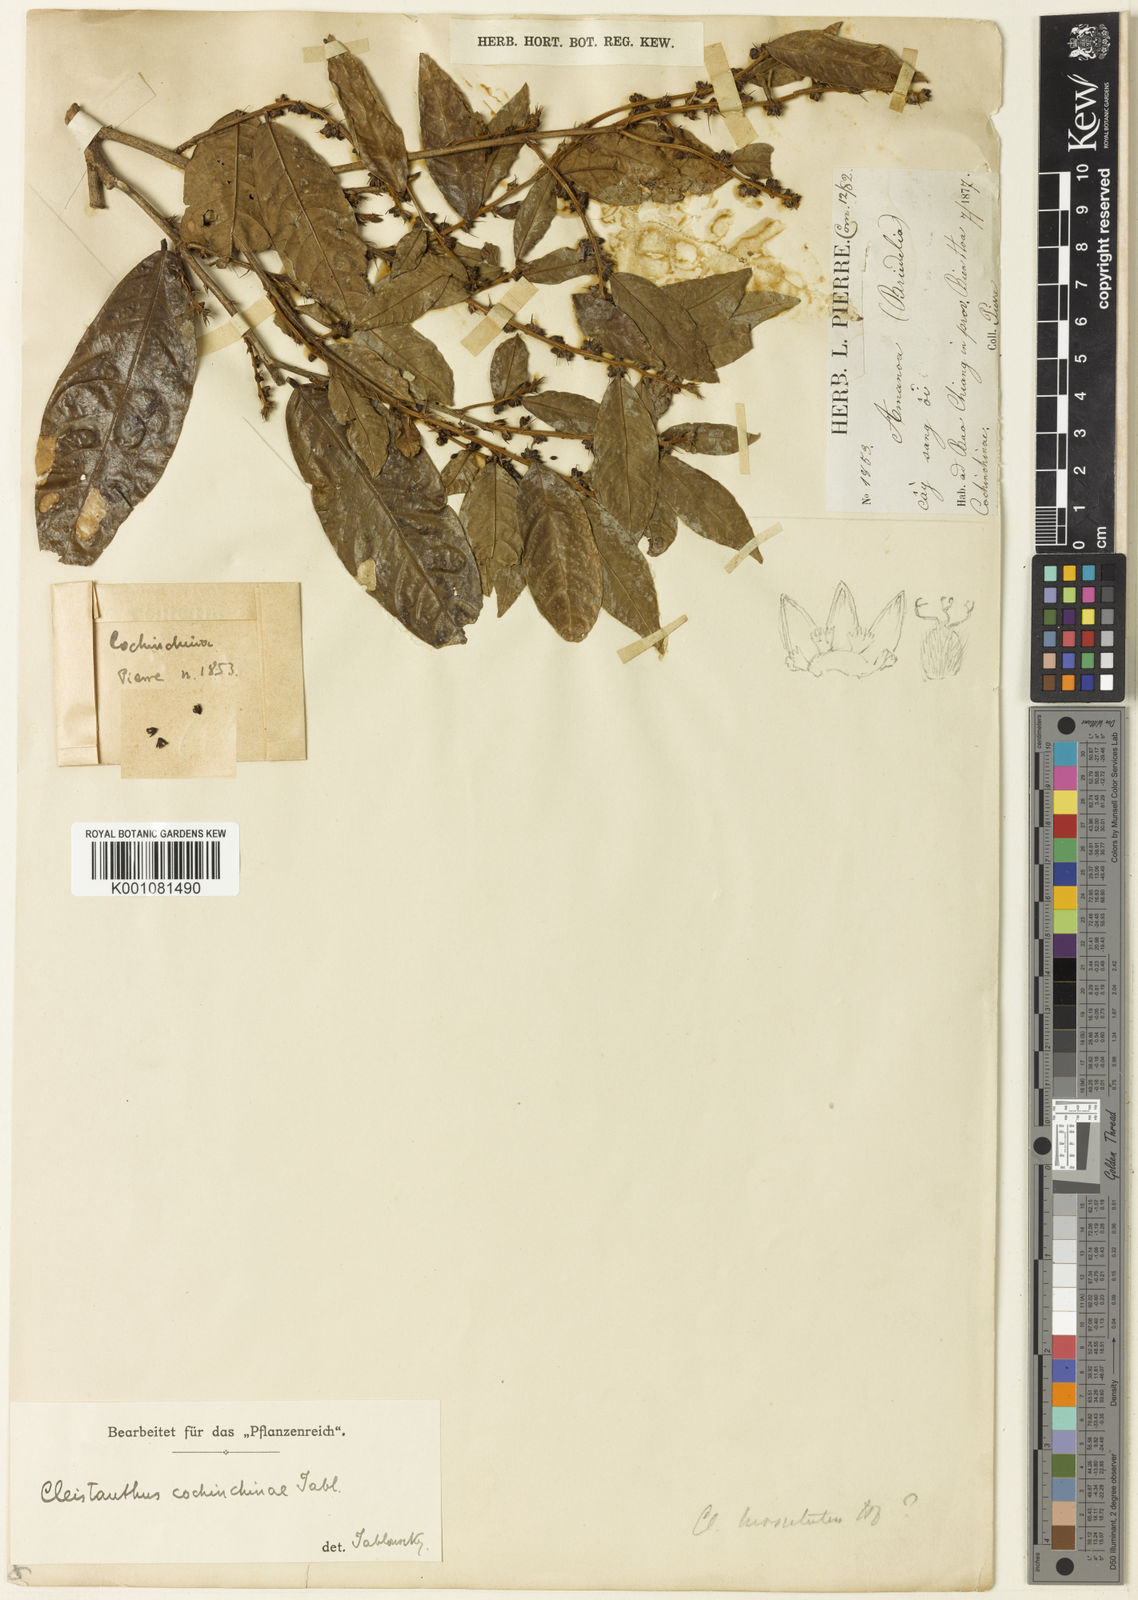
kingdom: Plantae
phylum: Tracheophyta
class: Magnoliopsida
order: Malpighiales
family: Phyllanthaceae
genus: Cleistanthus
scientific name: Cleistanthus hirsutulus
